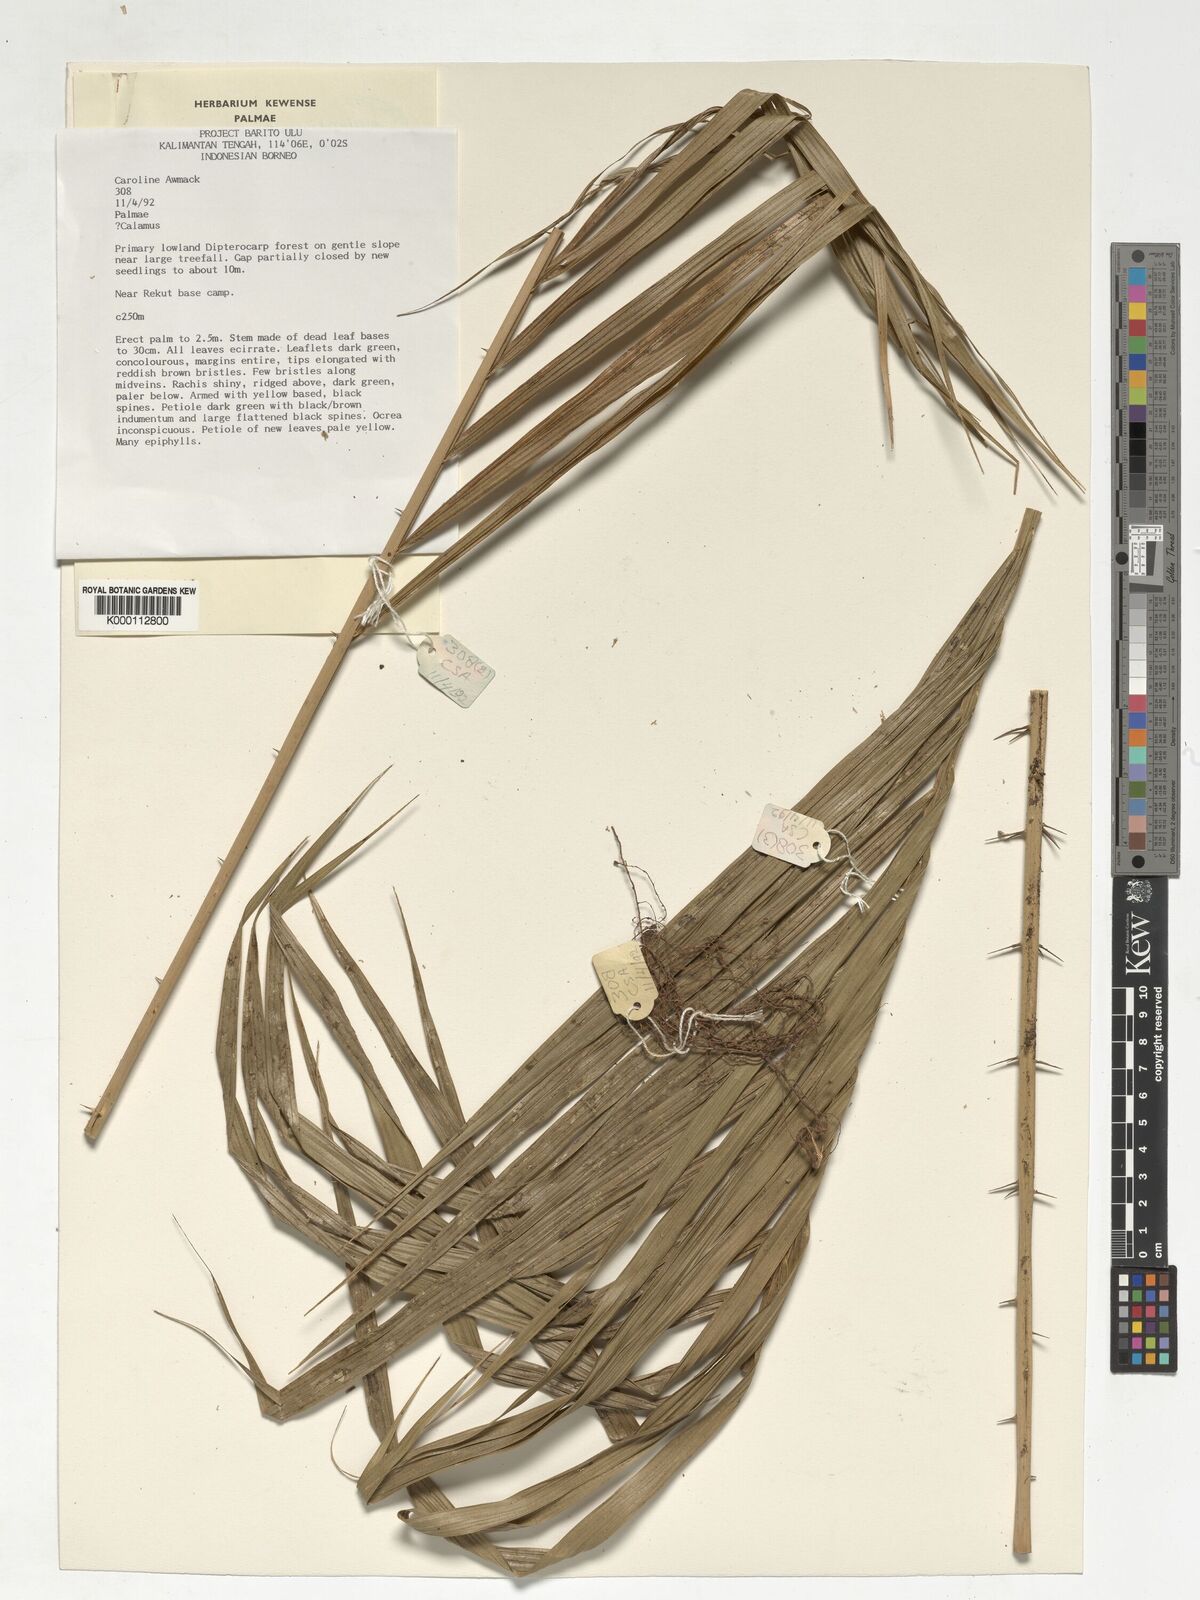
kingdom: Plantae
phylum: Tracheophyta
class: Liliopsida
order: Arecales
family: Arecaceae
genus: Calamus
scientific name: Calamus
